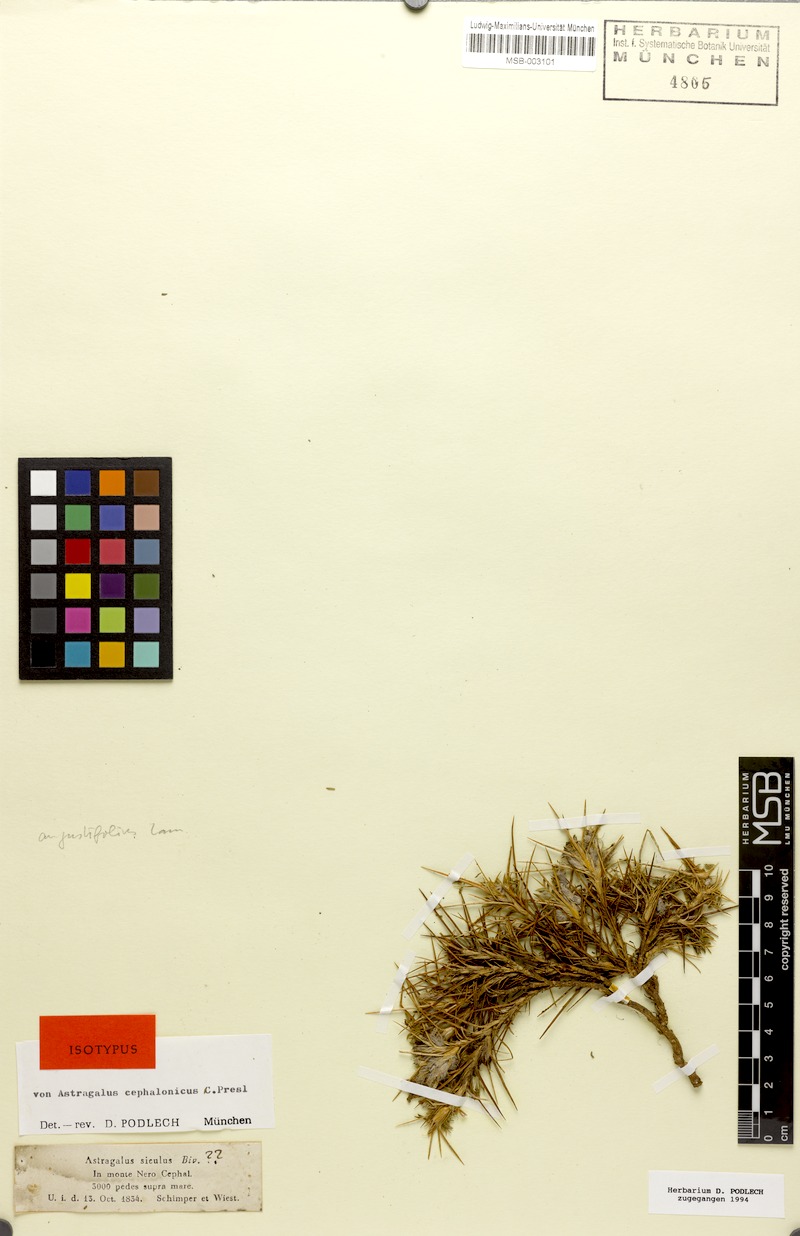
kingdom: Plantae
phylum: Tracheophyta
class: Magnoliopsida
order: Fabales
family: Fabaceae
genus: Astragalus
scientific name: Astragalus angustifolius
